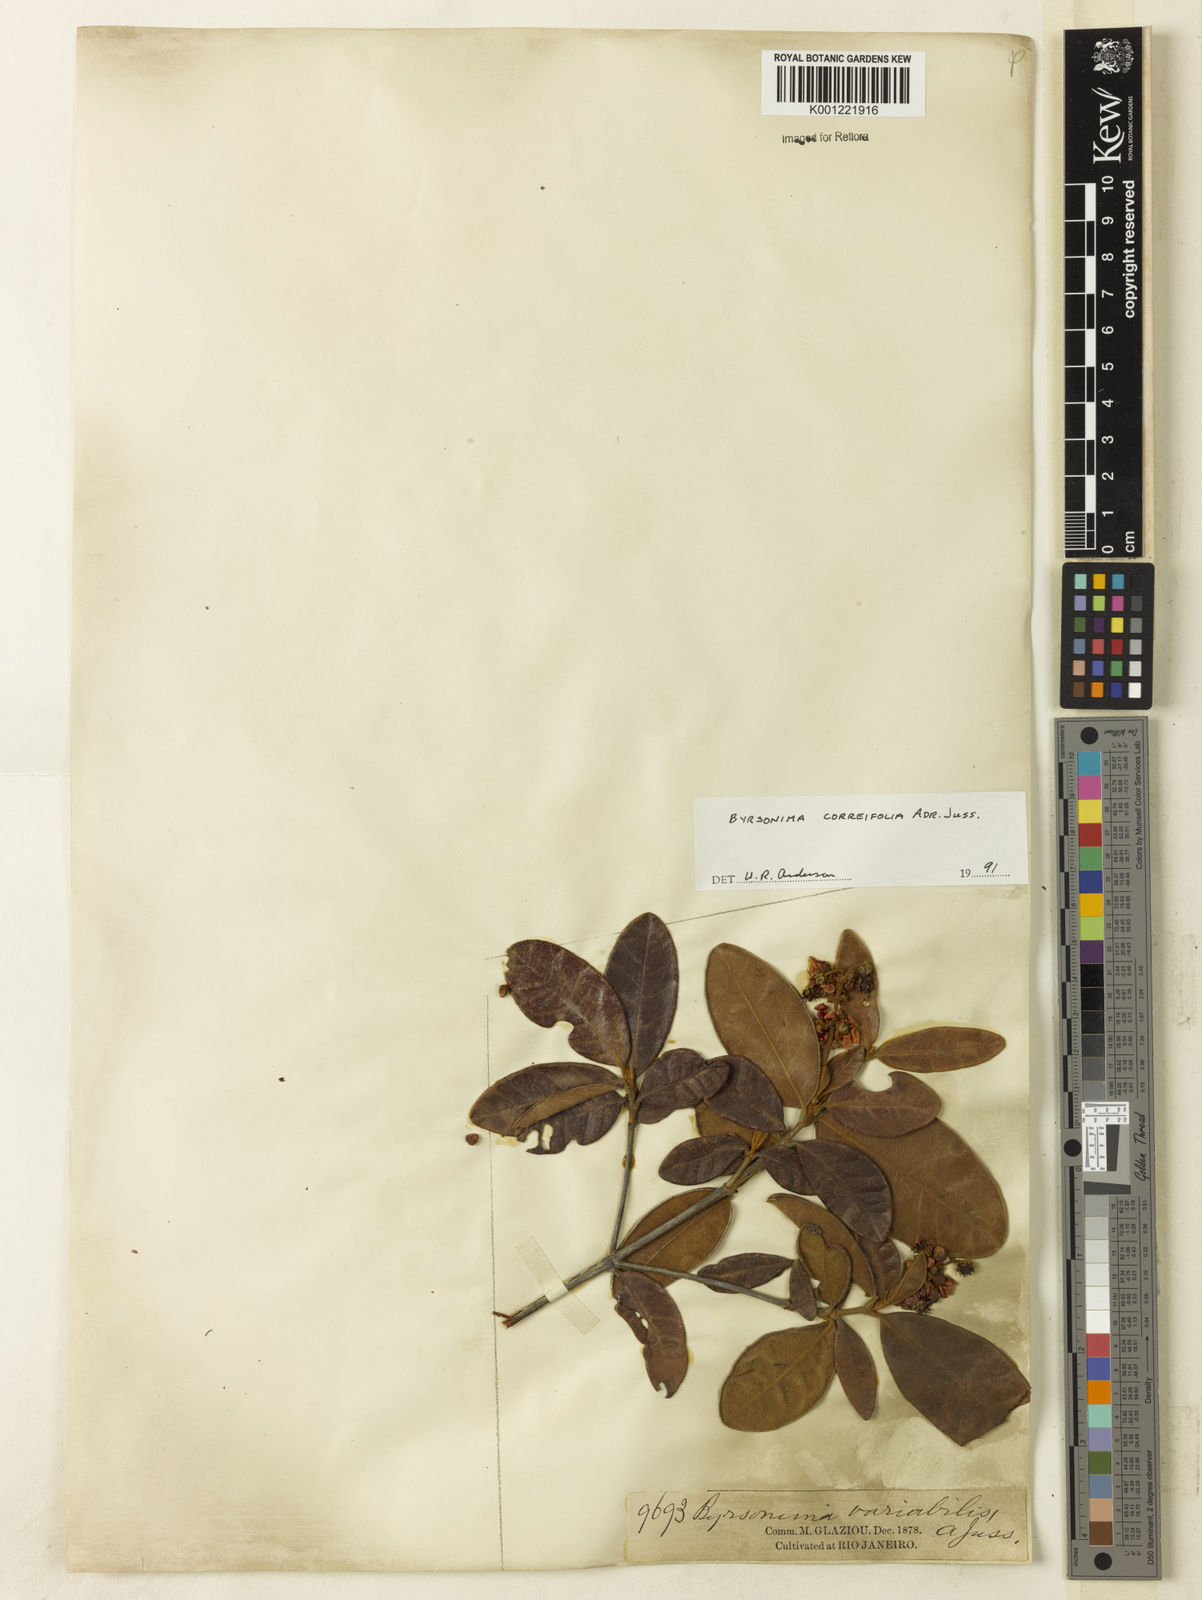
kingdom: Plantae
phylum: Tracheophyta
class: Magnoliopsida
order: Malpighiales
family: Malpighiaceae
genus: Byrsonima
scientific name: Byrsonima correifolia
